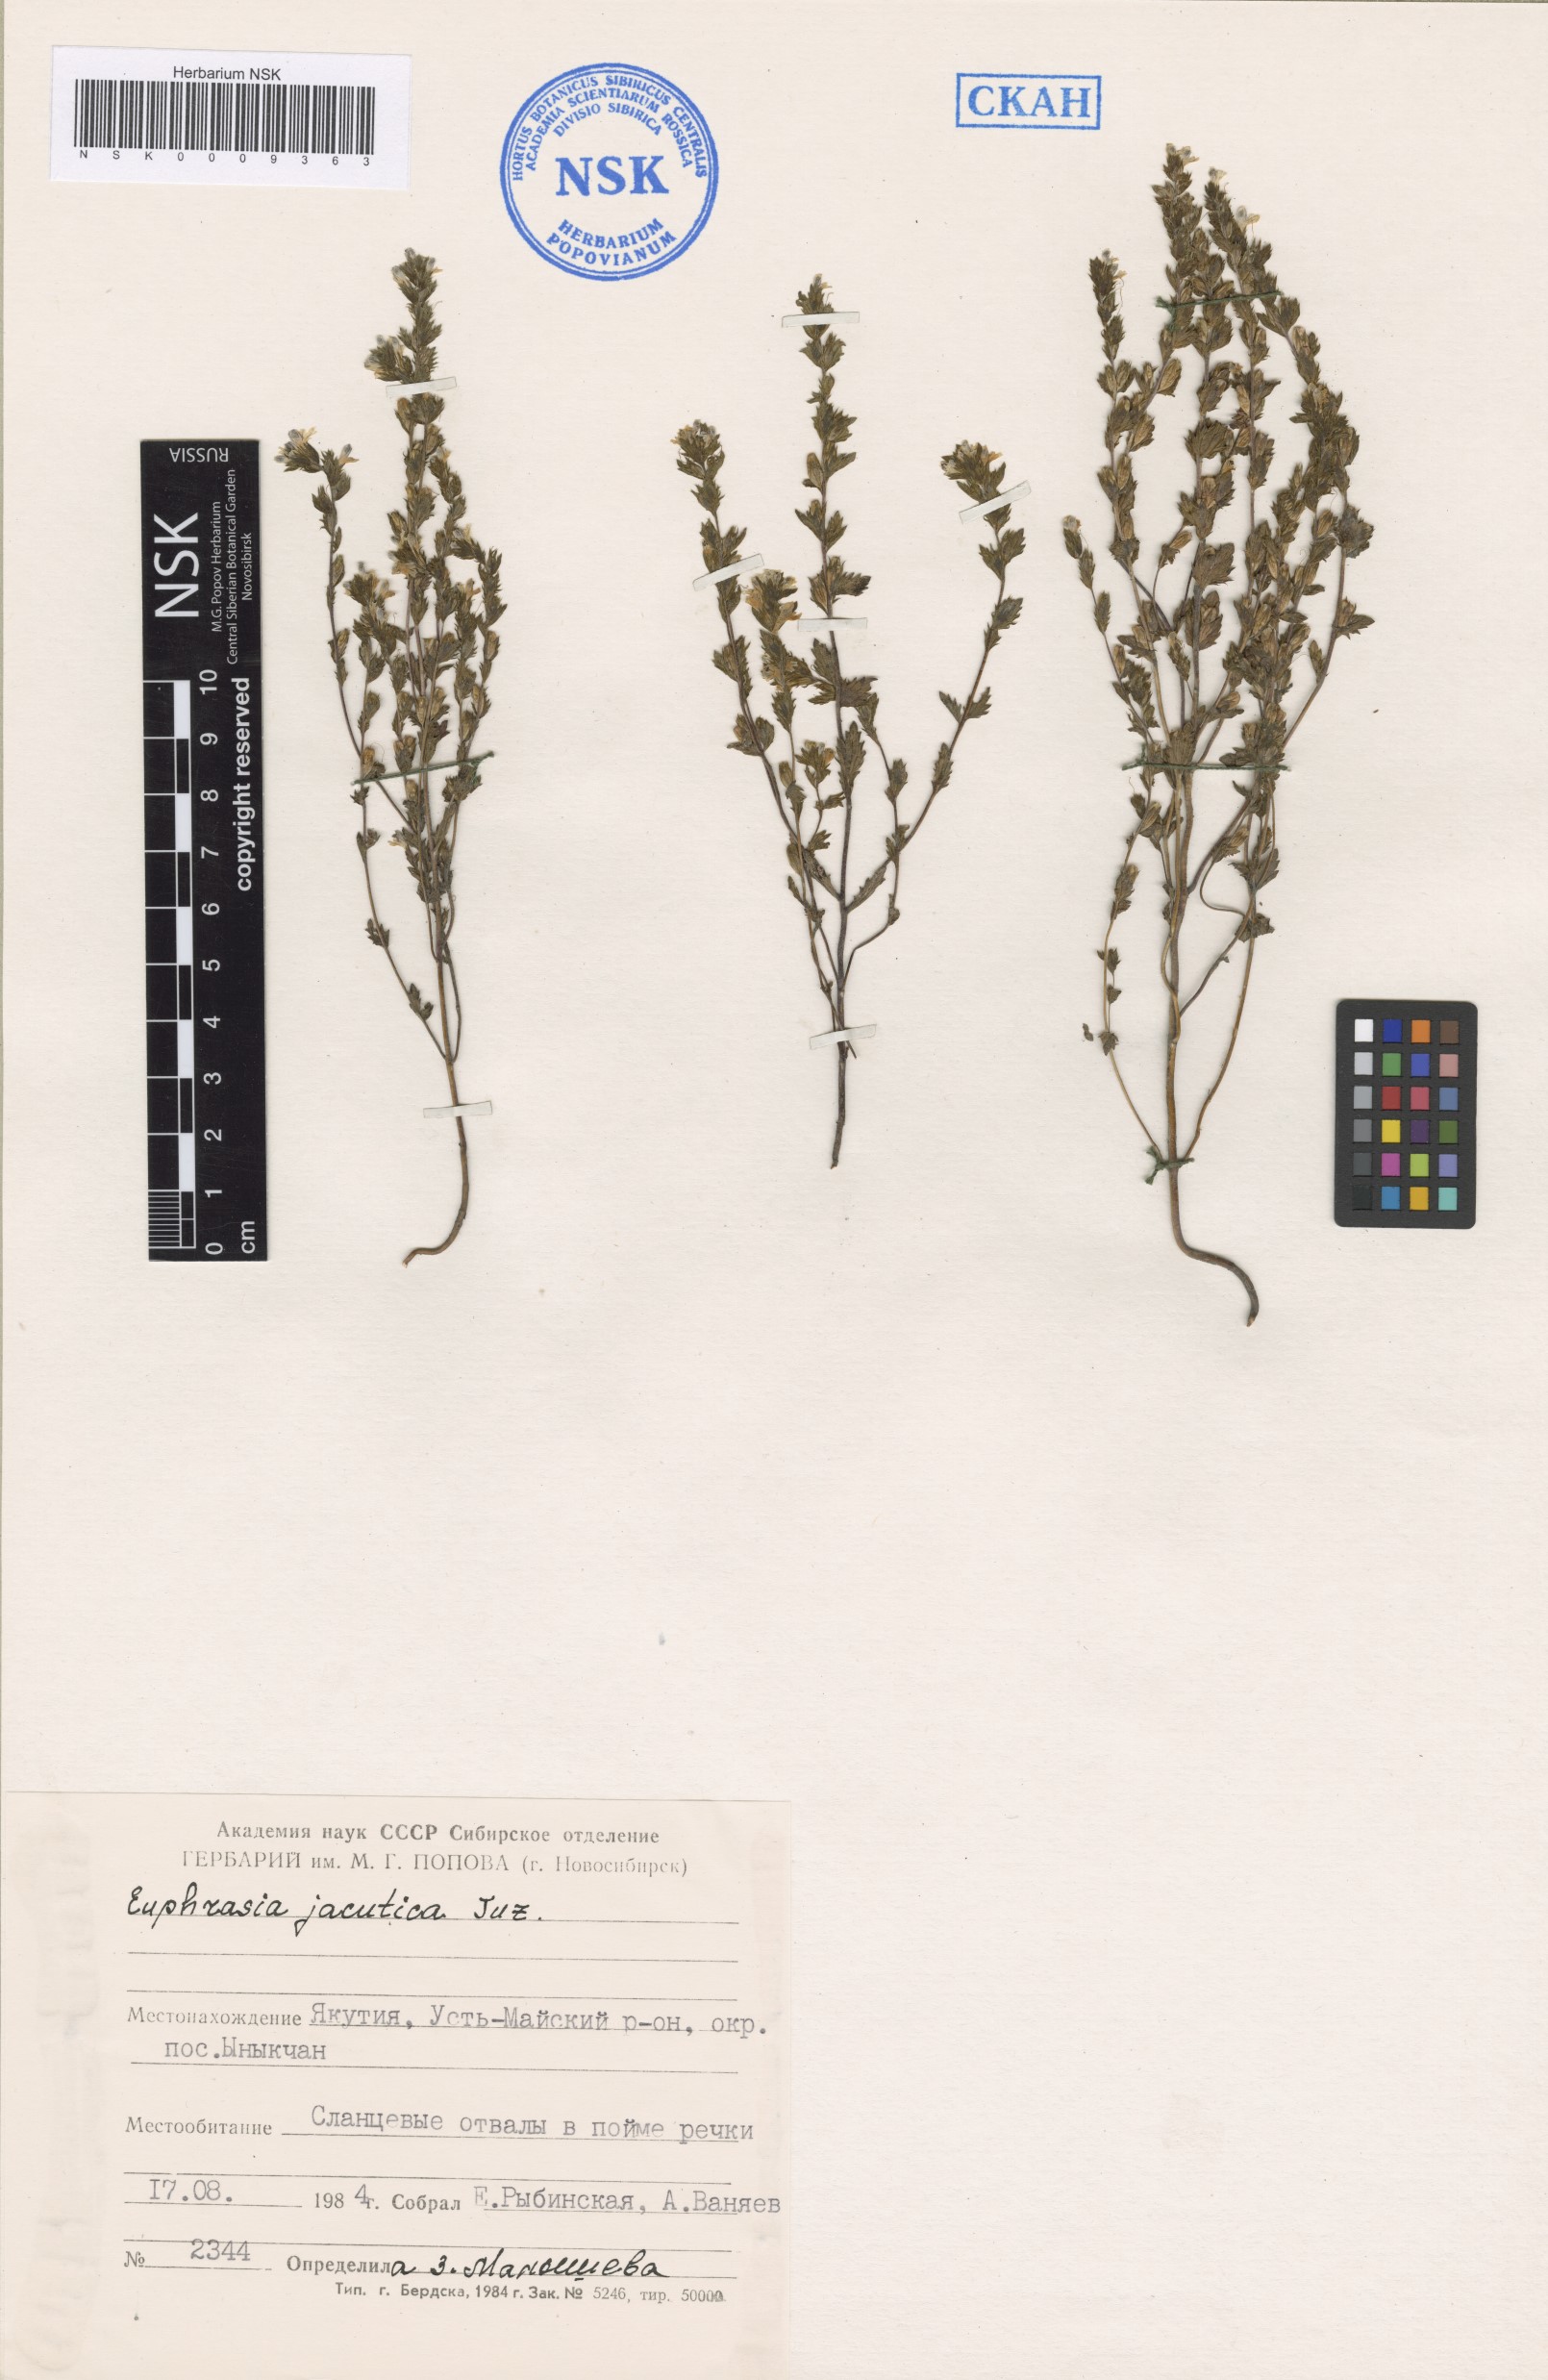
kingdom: Plantae
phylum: Tracheophyta
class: Magnoliopsida
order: Lamiales
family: Orobanchaceae
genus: Euphrasia
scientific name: Euphrasia jacutica
